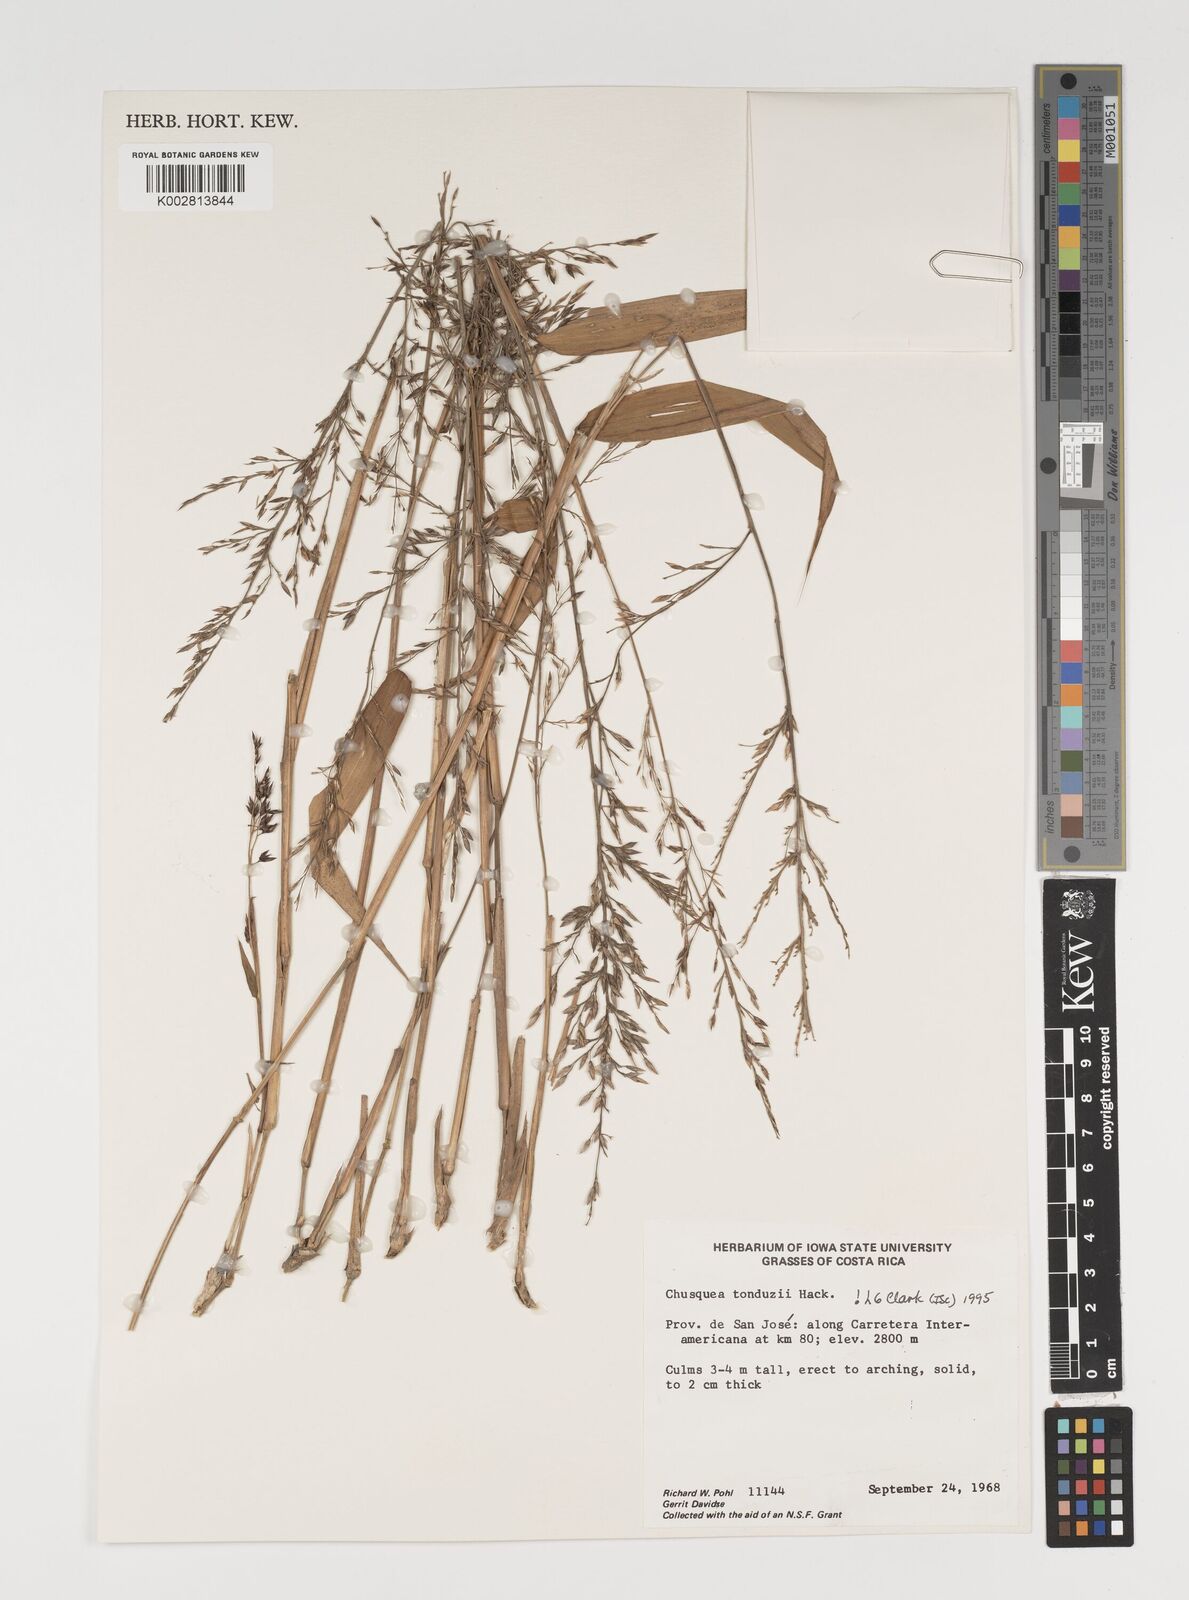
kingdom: Plantae
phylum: Tracheophyta
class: Liliopsida
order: Poales
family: Poaceae
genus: Chusquea
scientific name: Chusquea tonduzii
